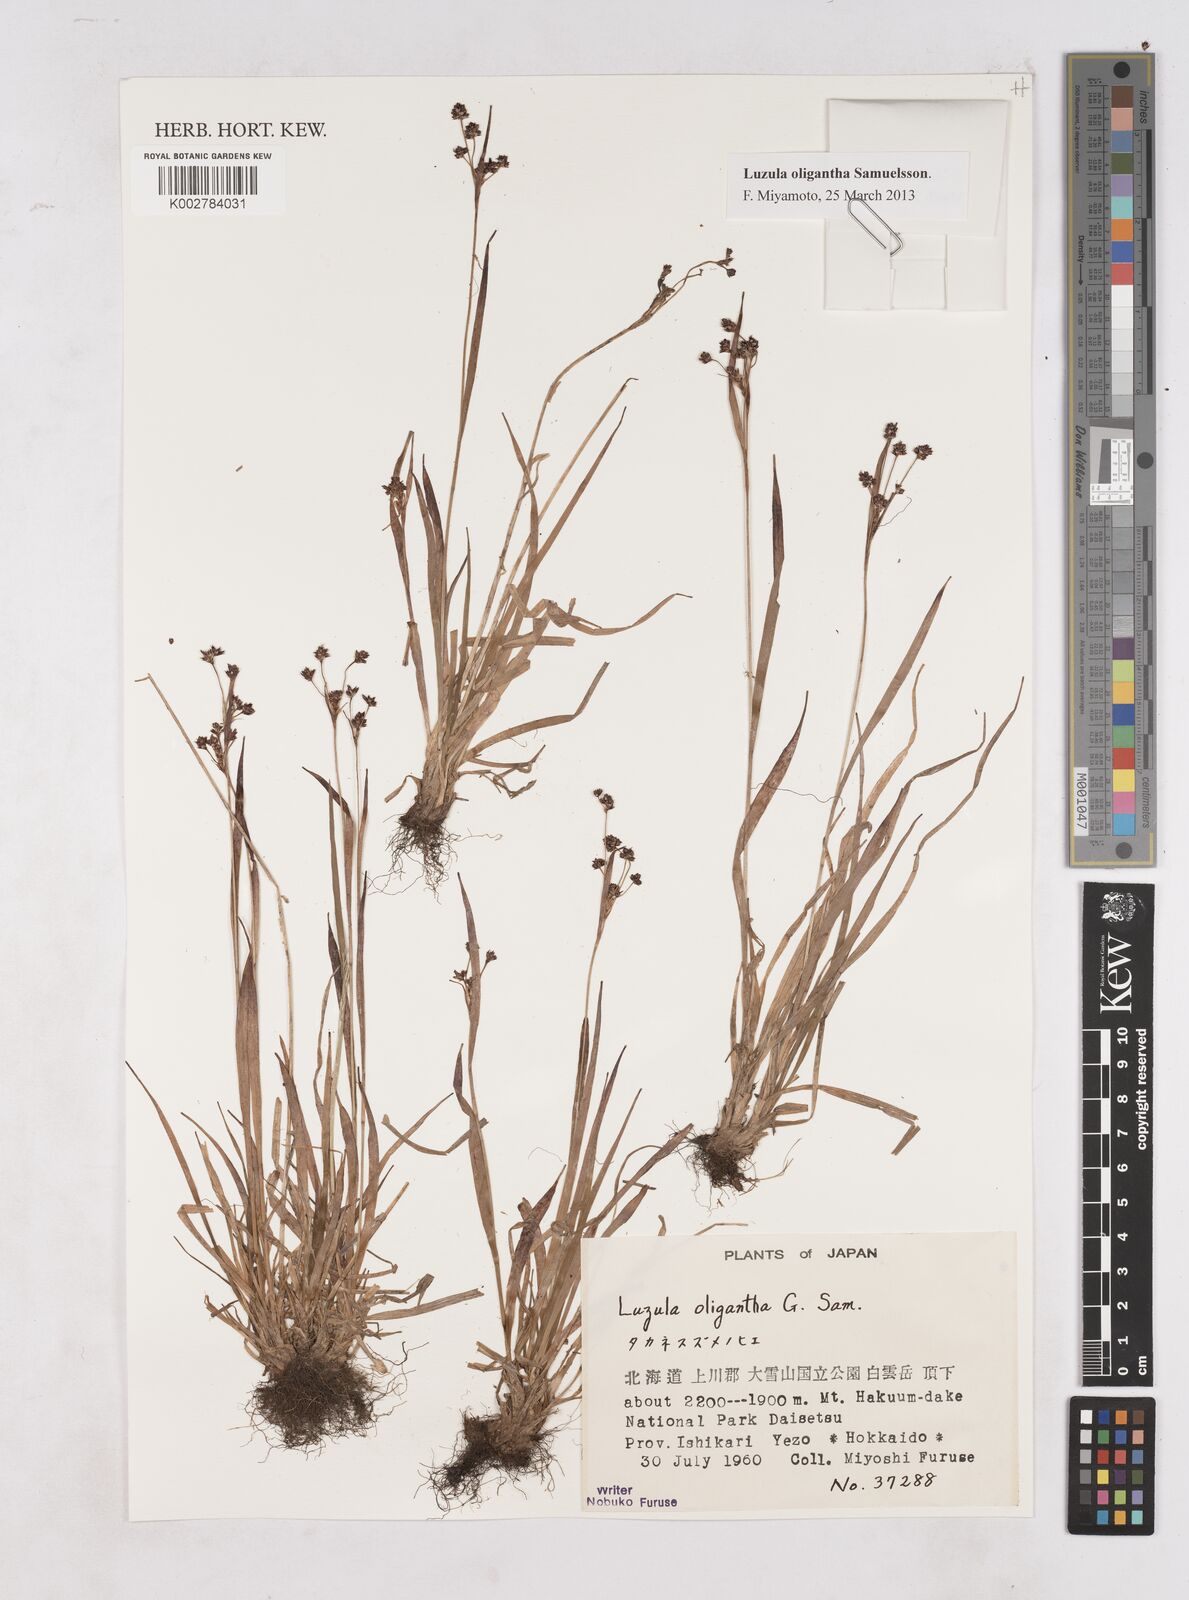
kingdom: Plantae
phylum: Tracheophyta
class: Liliopsida
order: Poales
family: Juncaceae
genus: Luzula
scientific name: Luzula oligantha
